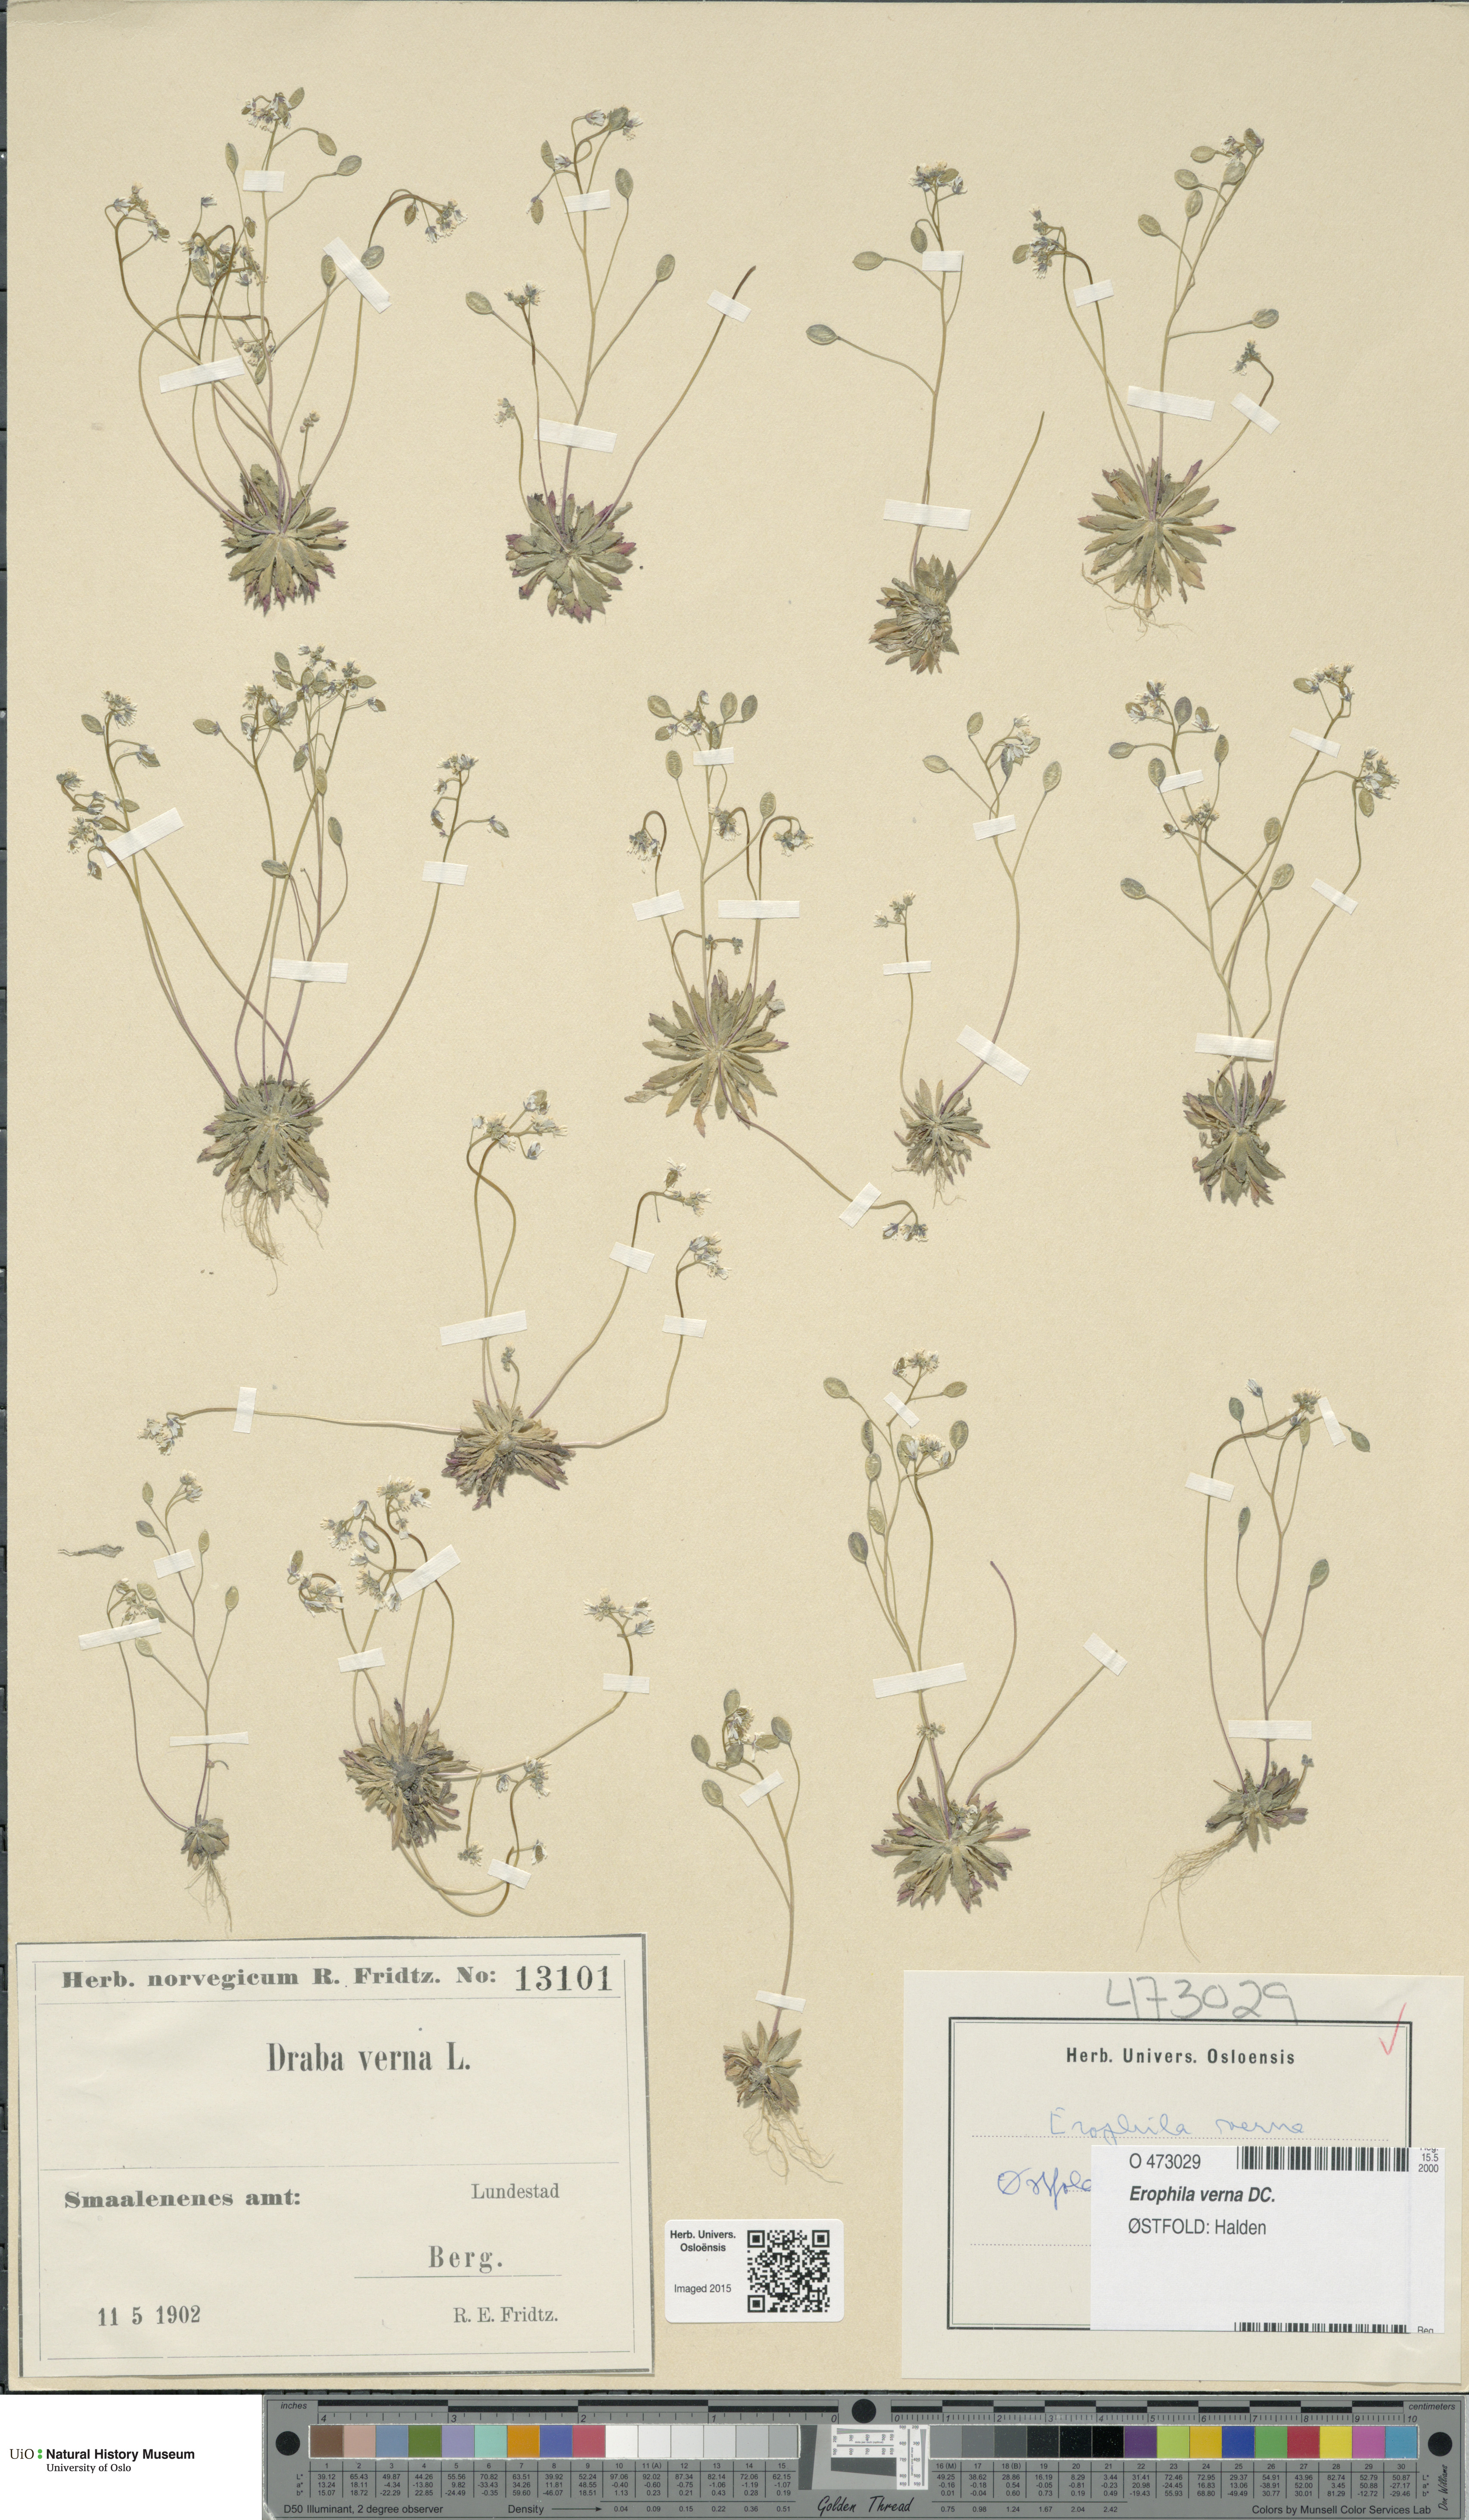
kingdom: Plantae
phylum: Tracheophyta
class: Magnoliopsida
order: Brassicales
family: Brassicaceae
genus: Draba
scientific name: Draba verna
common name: Spring draba
